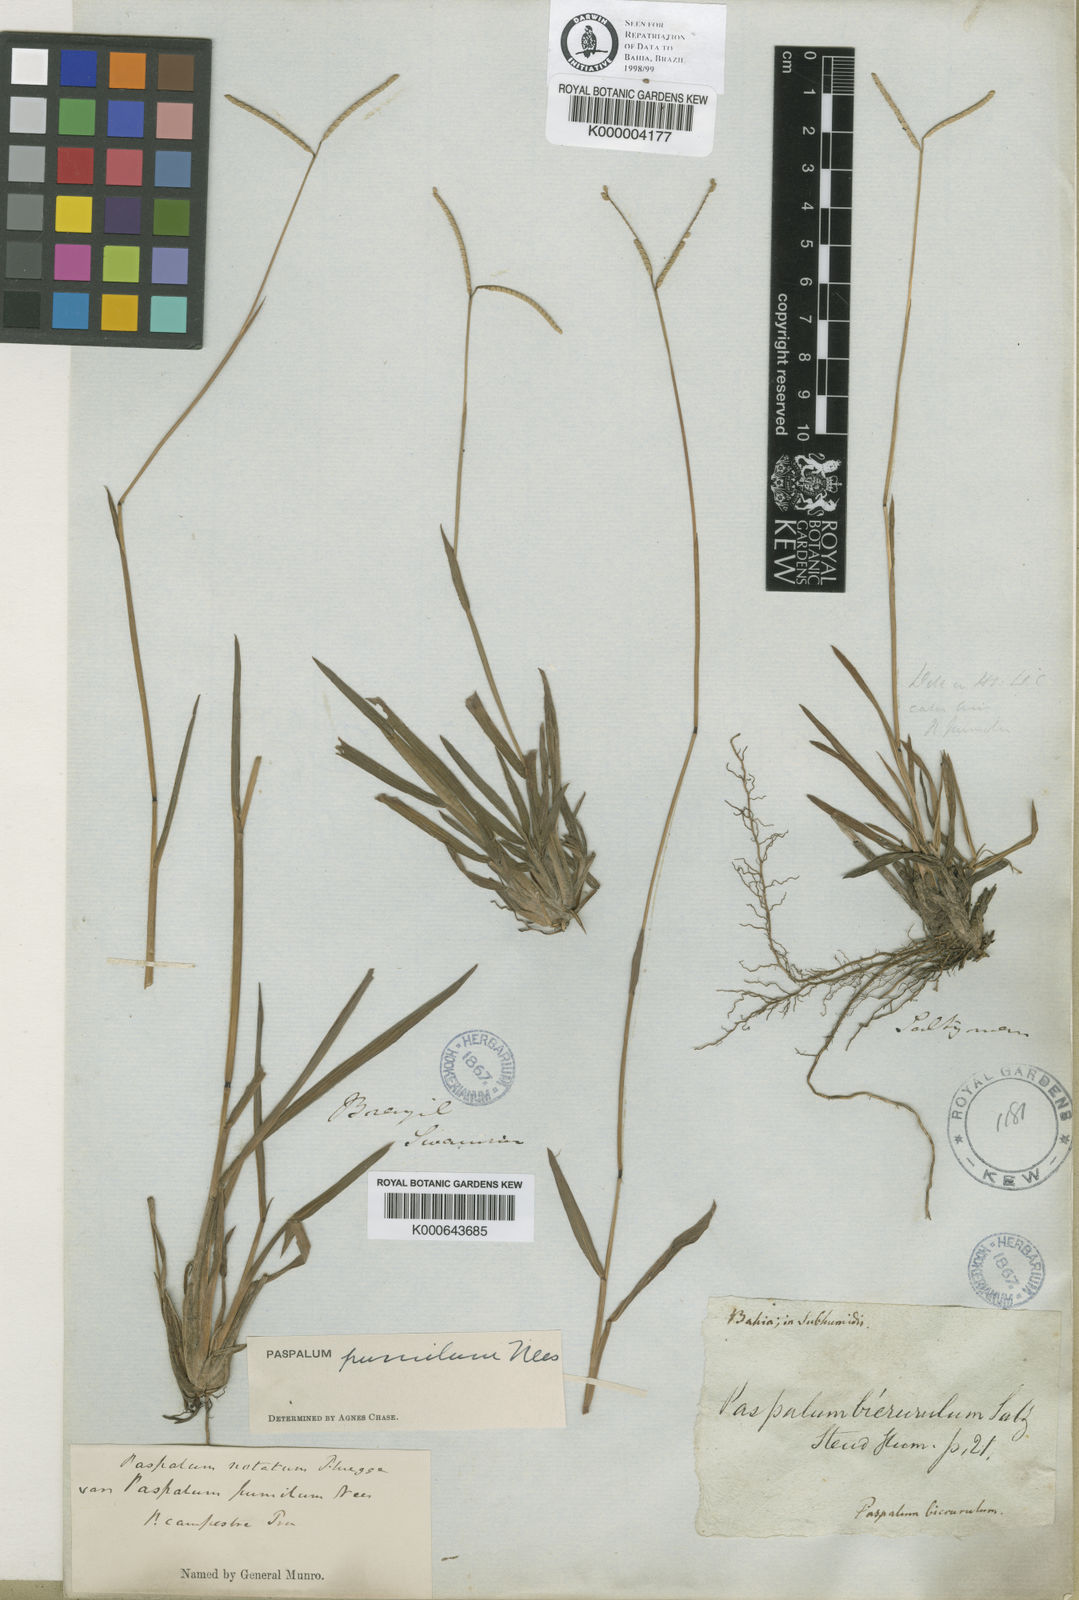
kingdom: Plantae
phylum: Tracheophyta
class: Liliopsida
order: Poales
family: Poaceae
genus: Paspalum
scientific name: Paspalum pumilum
